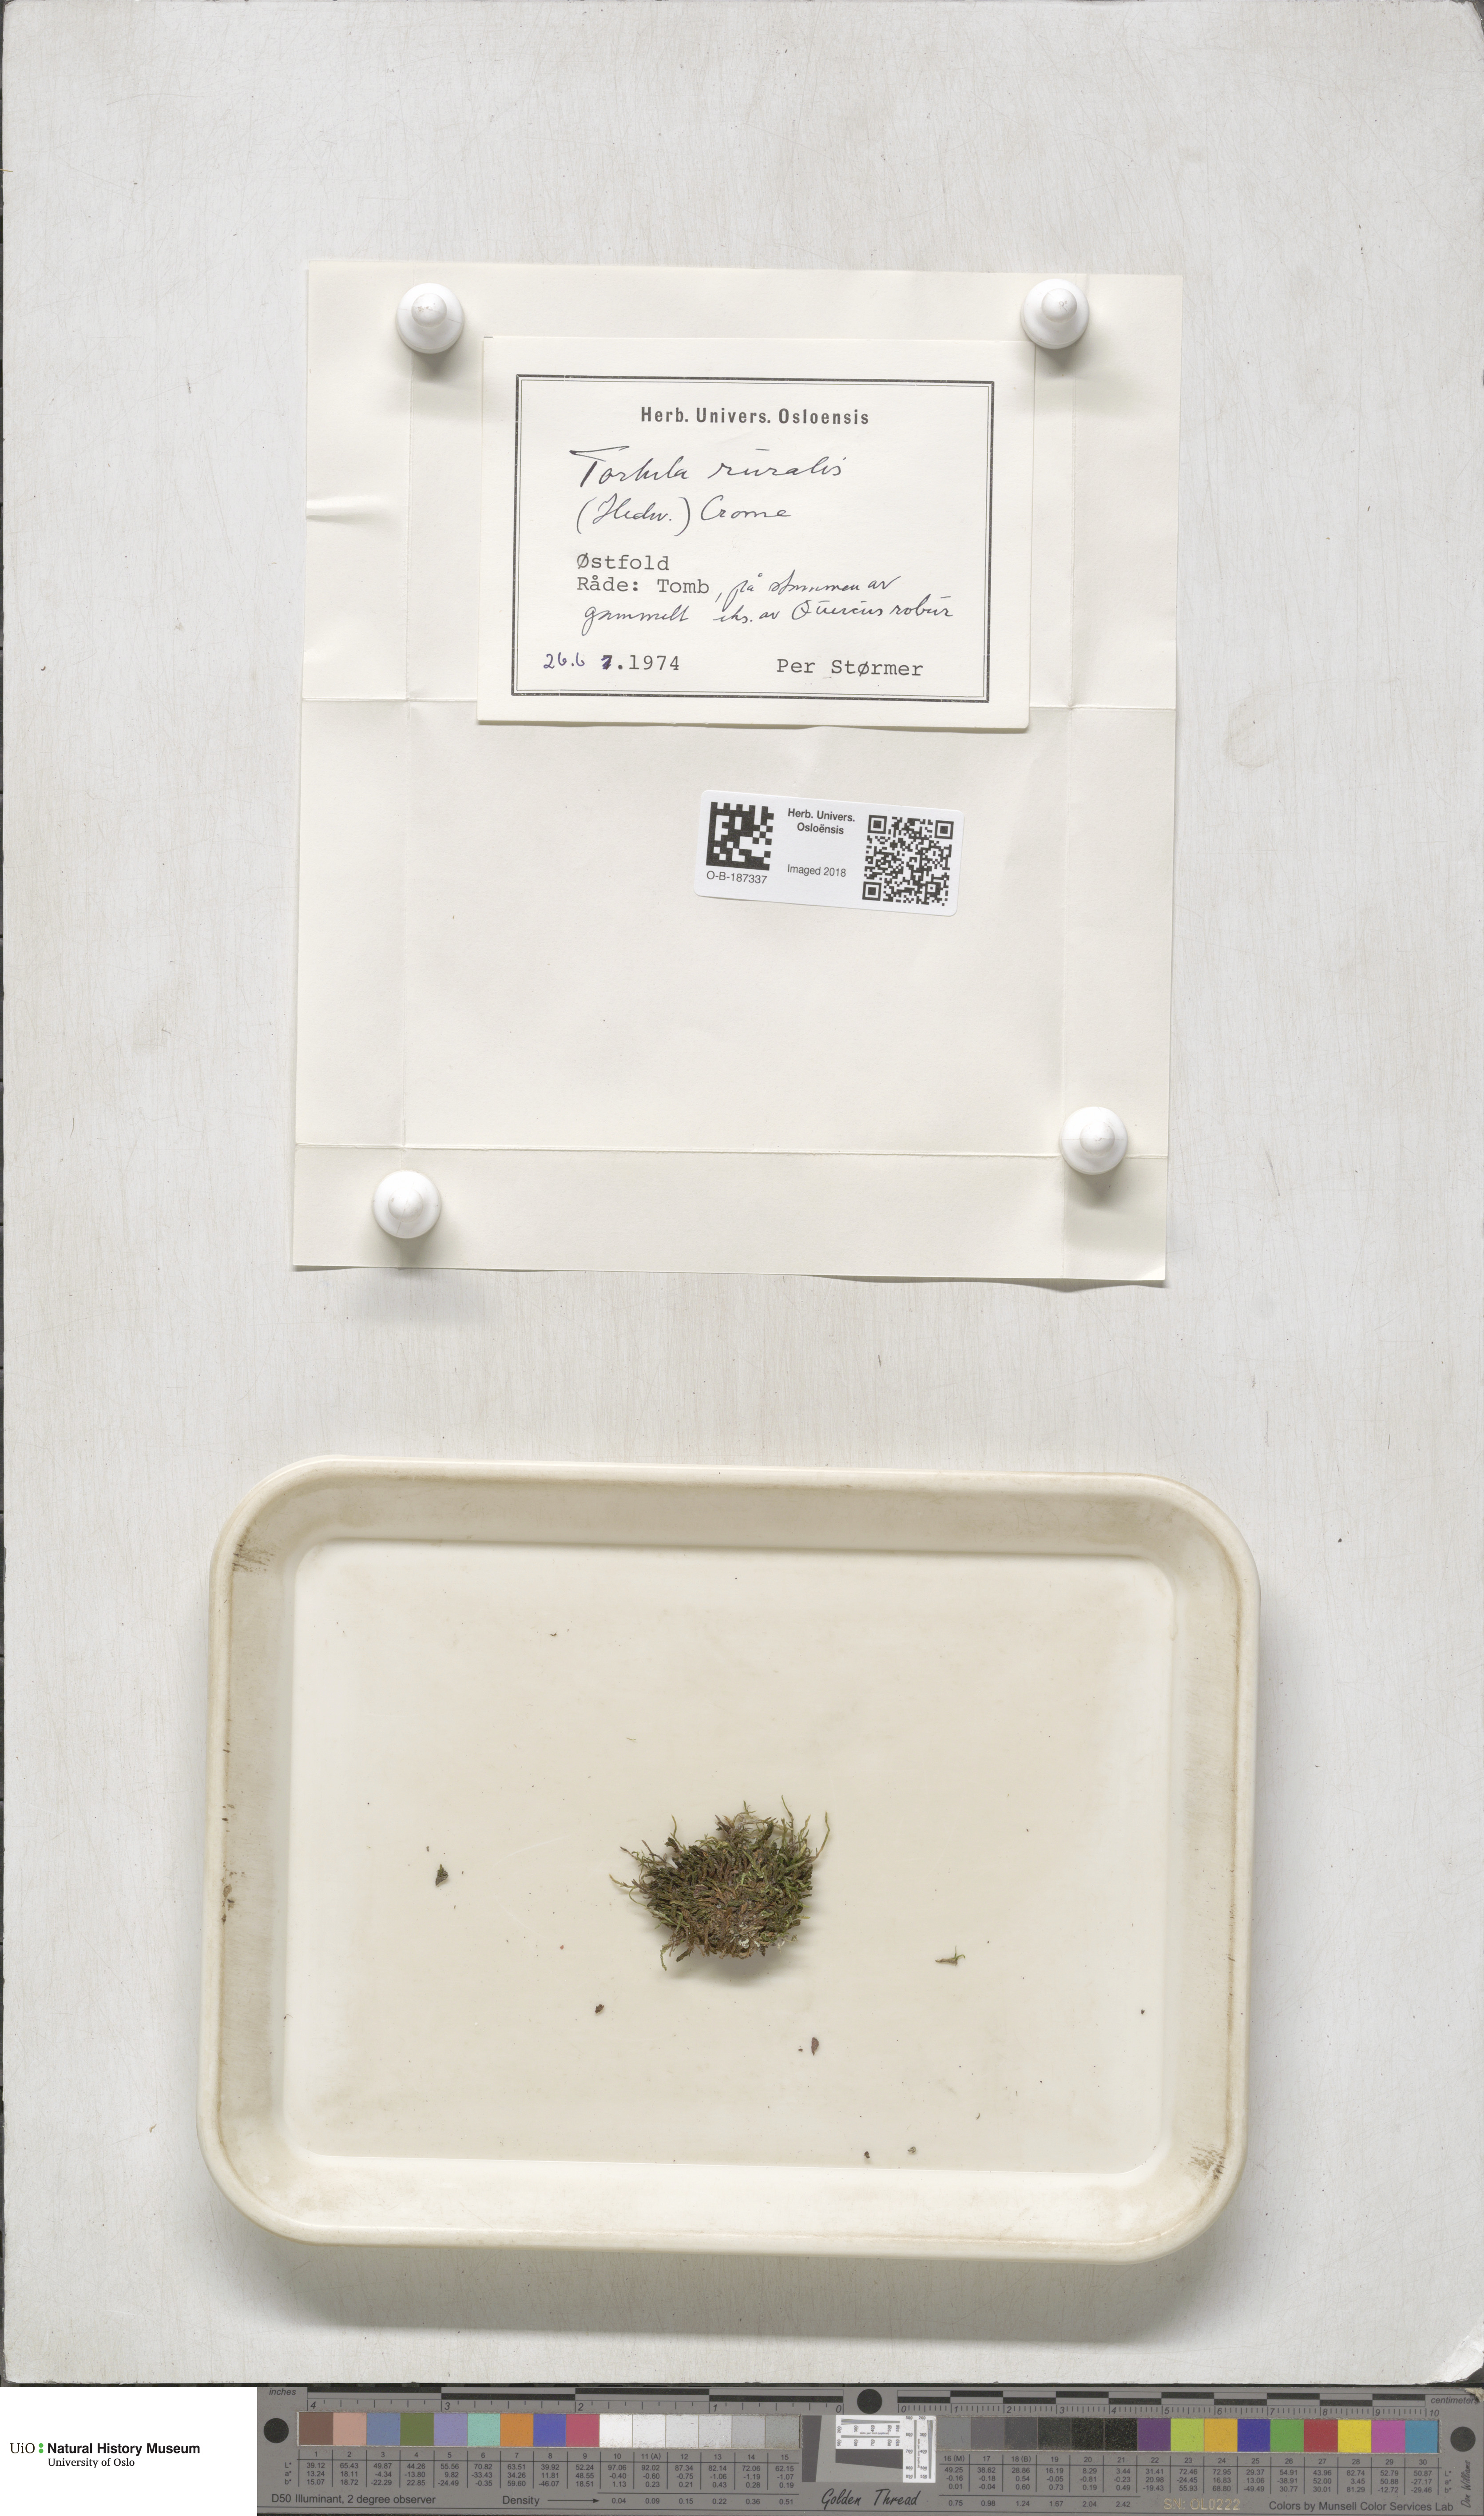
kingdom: Plantae
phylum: Bryophyta
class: Bryopsida
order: Pottiales
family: Pottiaceae
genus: Syntrichia
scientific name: Syntrichia ruralis
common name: Sidewalk screw moss
